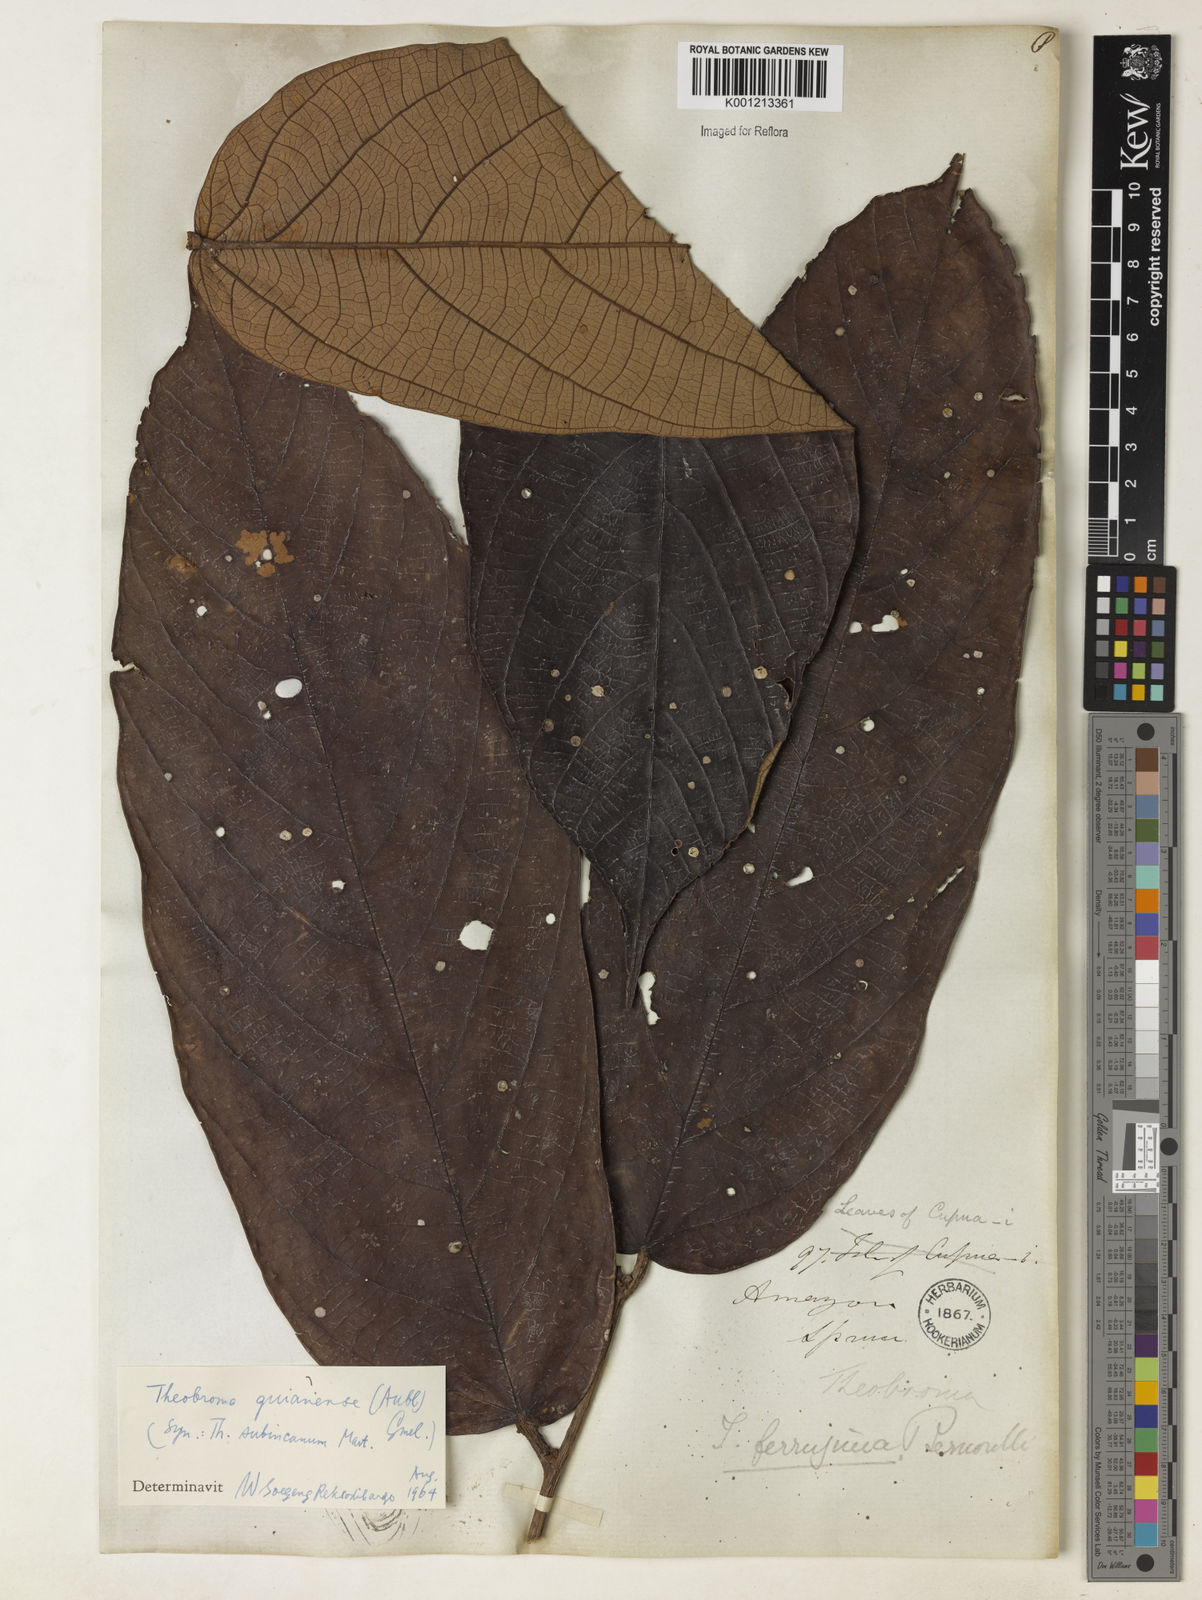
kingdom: Plantae
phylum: Tracheophyta
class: Magnoliopsida
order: Malvales
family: Malvaceae
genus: Theobroma
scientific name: Theobroma subincanum
